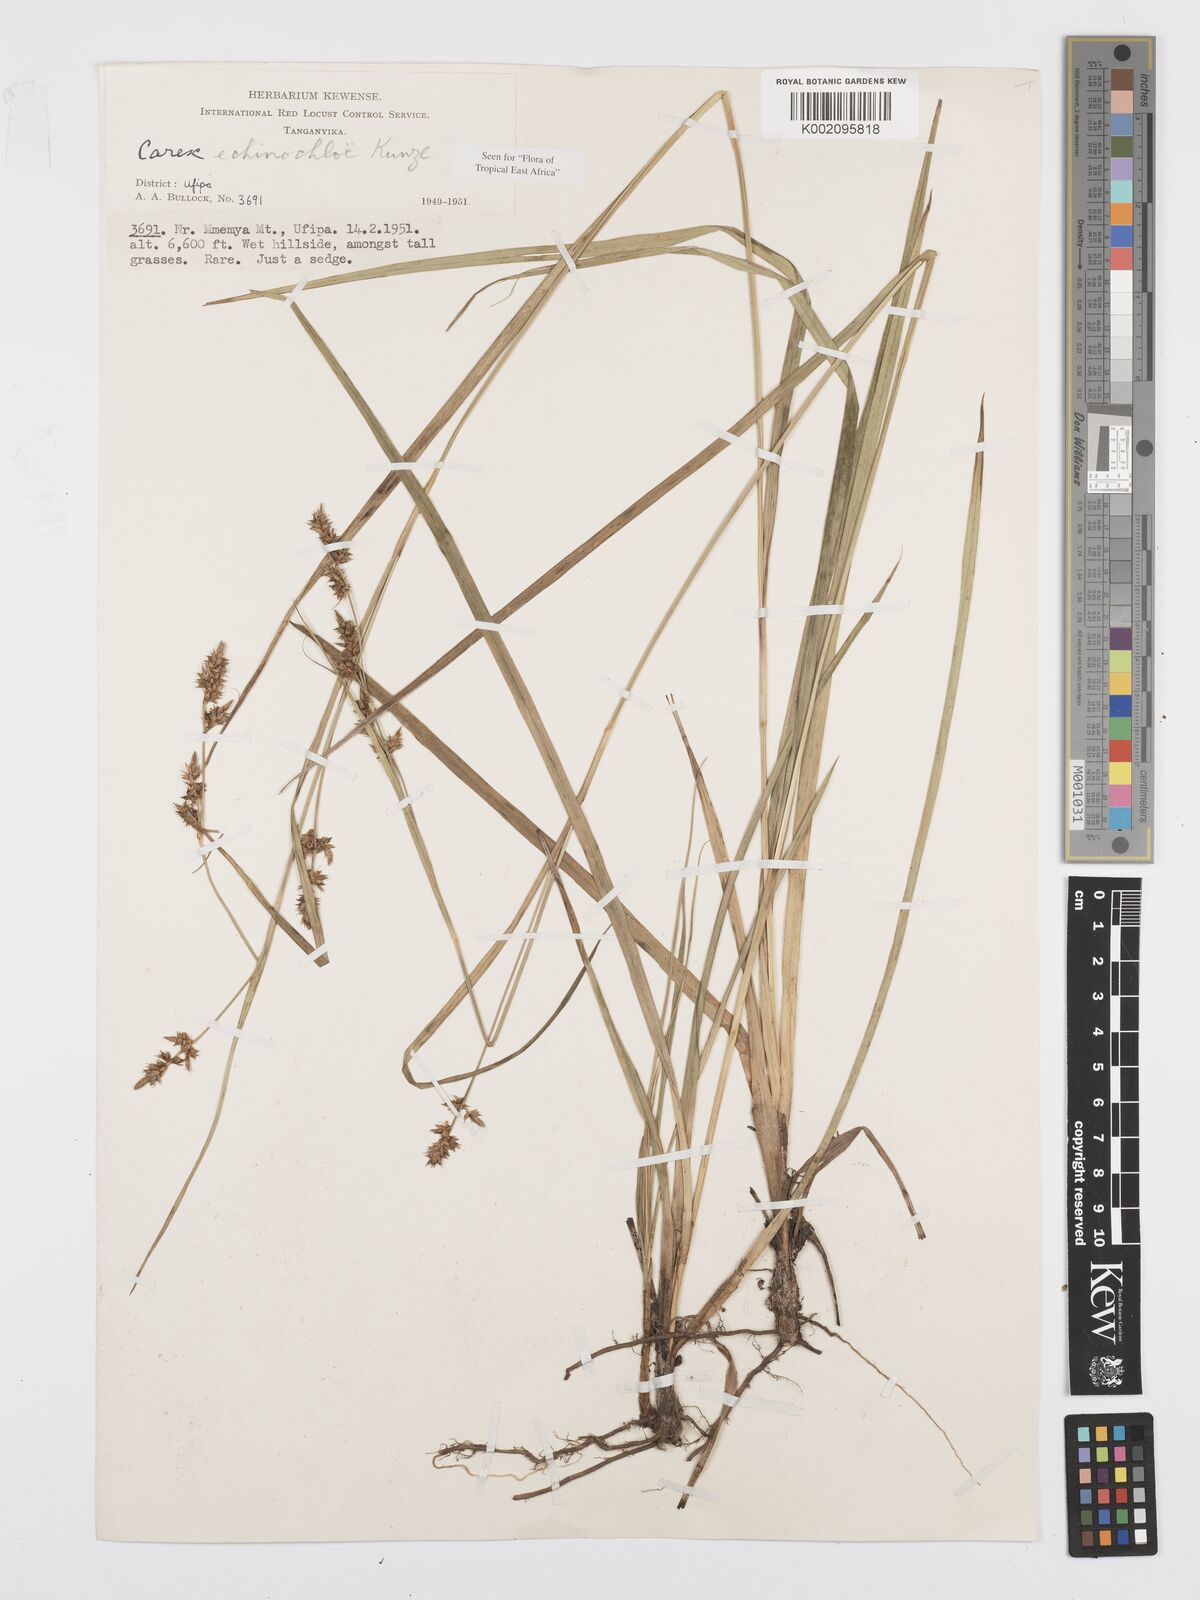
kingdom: Plantae
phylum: Tracheophyta
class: Liliopsida
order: Poales
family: Cyperaceae
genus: Carex
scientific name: Carex
